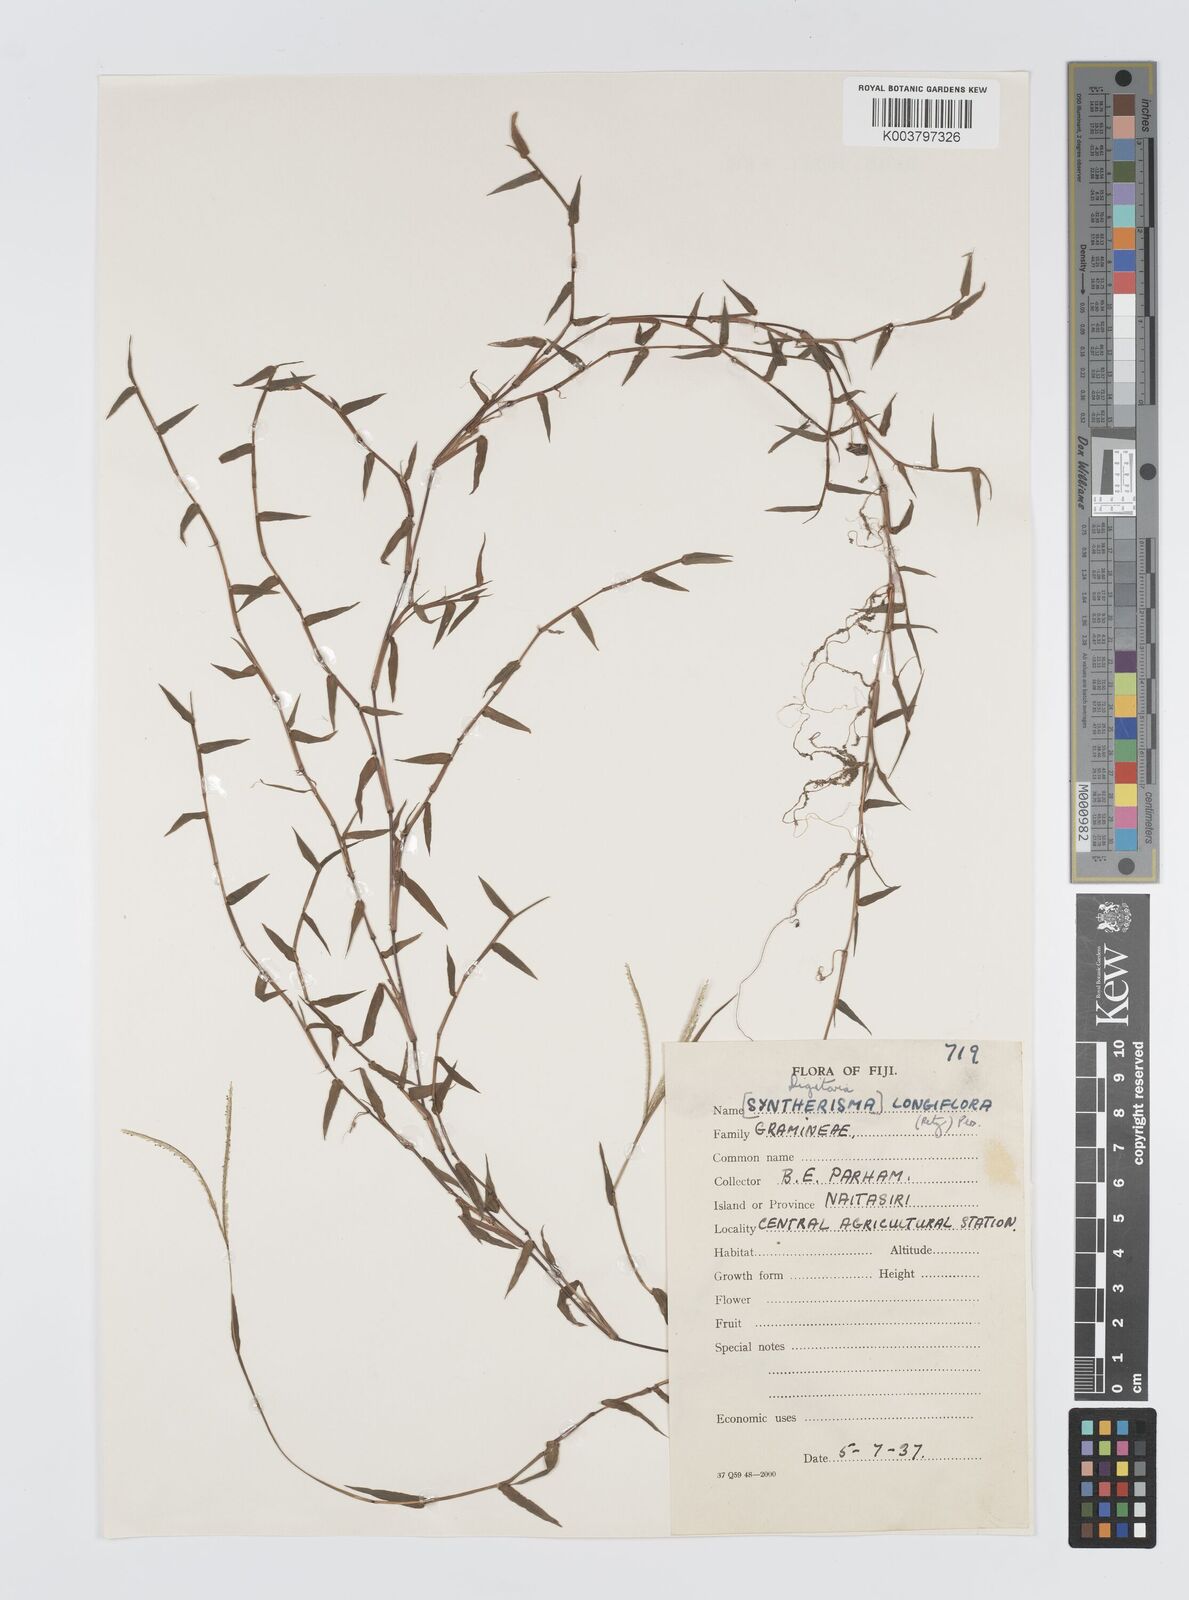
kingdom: Plantae
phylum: Tracheophyta
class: Liliopsida
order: Poales
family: Poaceae
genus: Digitaria
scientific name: Digitaria longiflora
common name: Wire crabgrass
